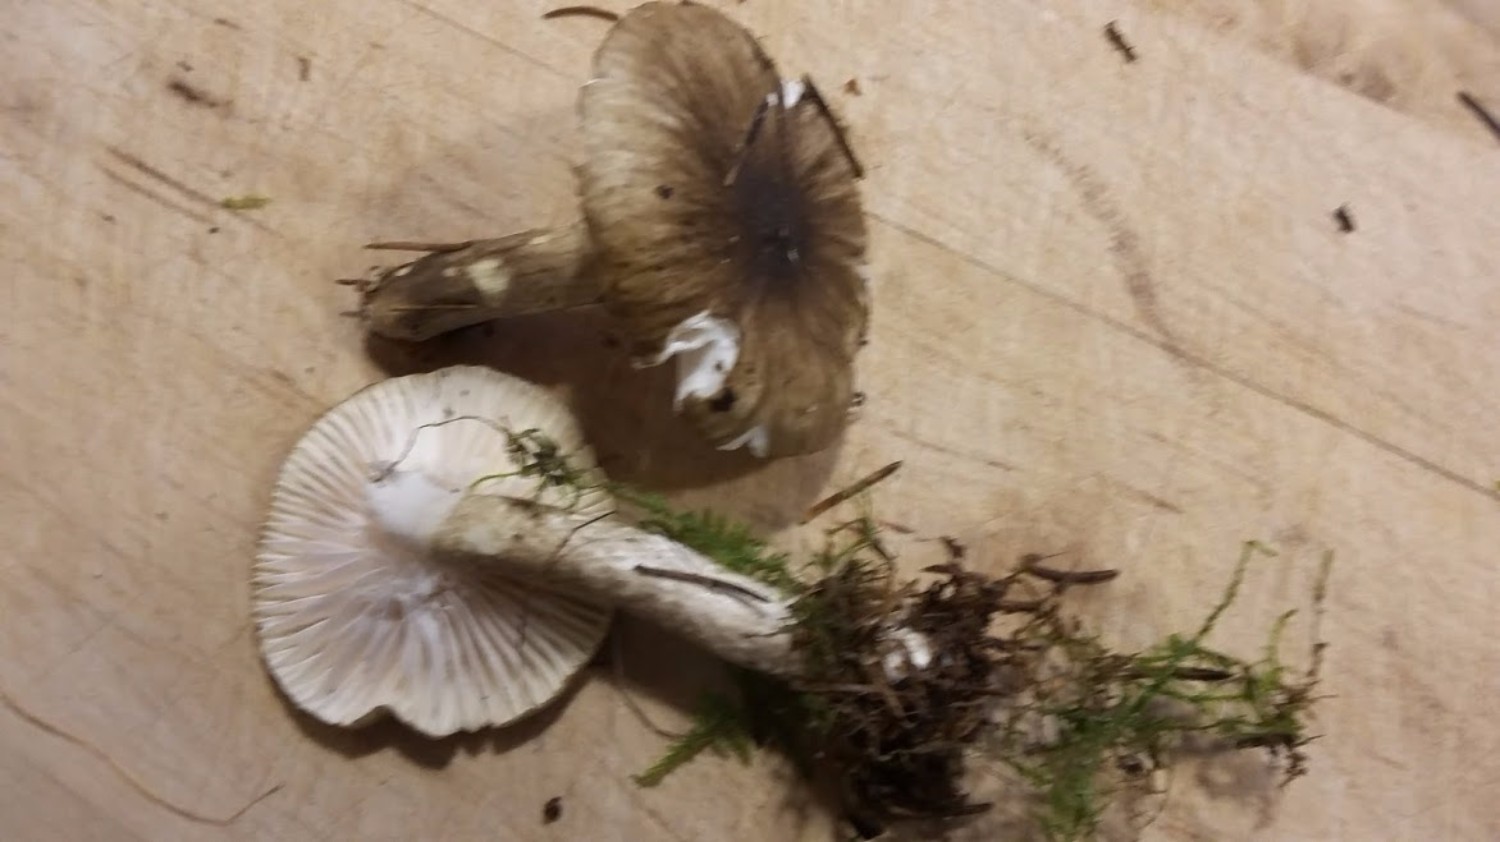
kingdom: Fungi
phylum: Basidiomycota
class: Agaricomycetes
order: Agaricales
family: Hygrophoraceae
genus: Hygrophorus
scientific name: Hygrophorus olivaceoalbus
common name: hvidbrun sneglehat
